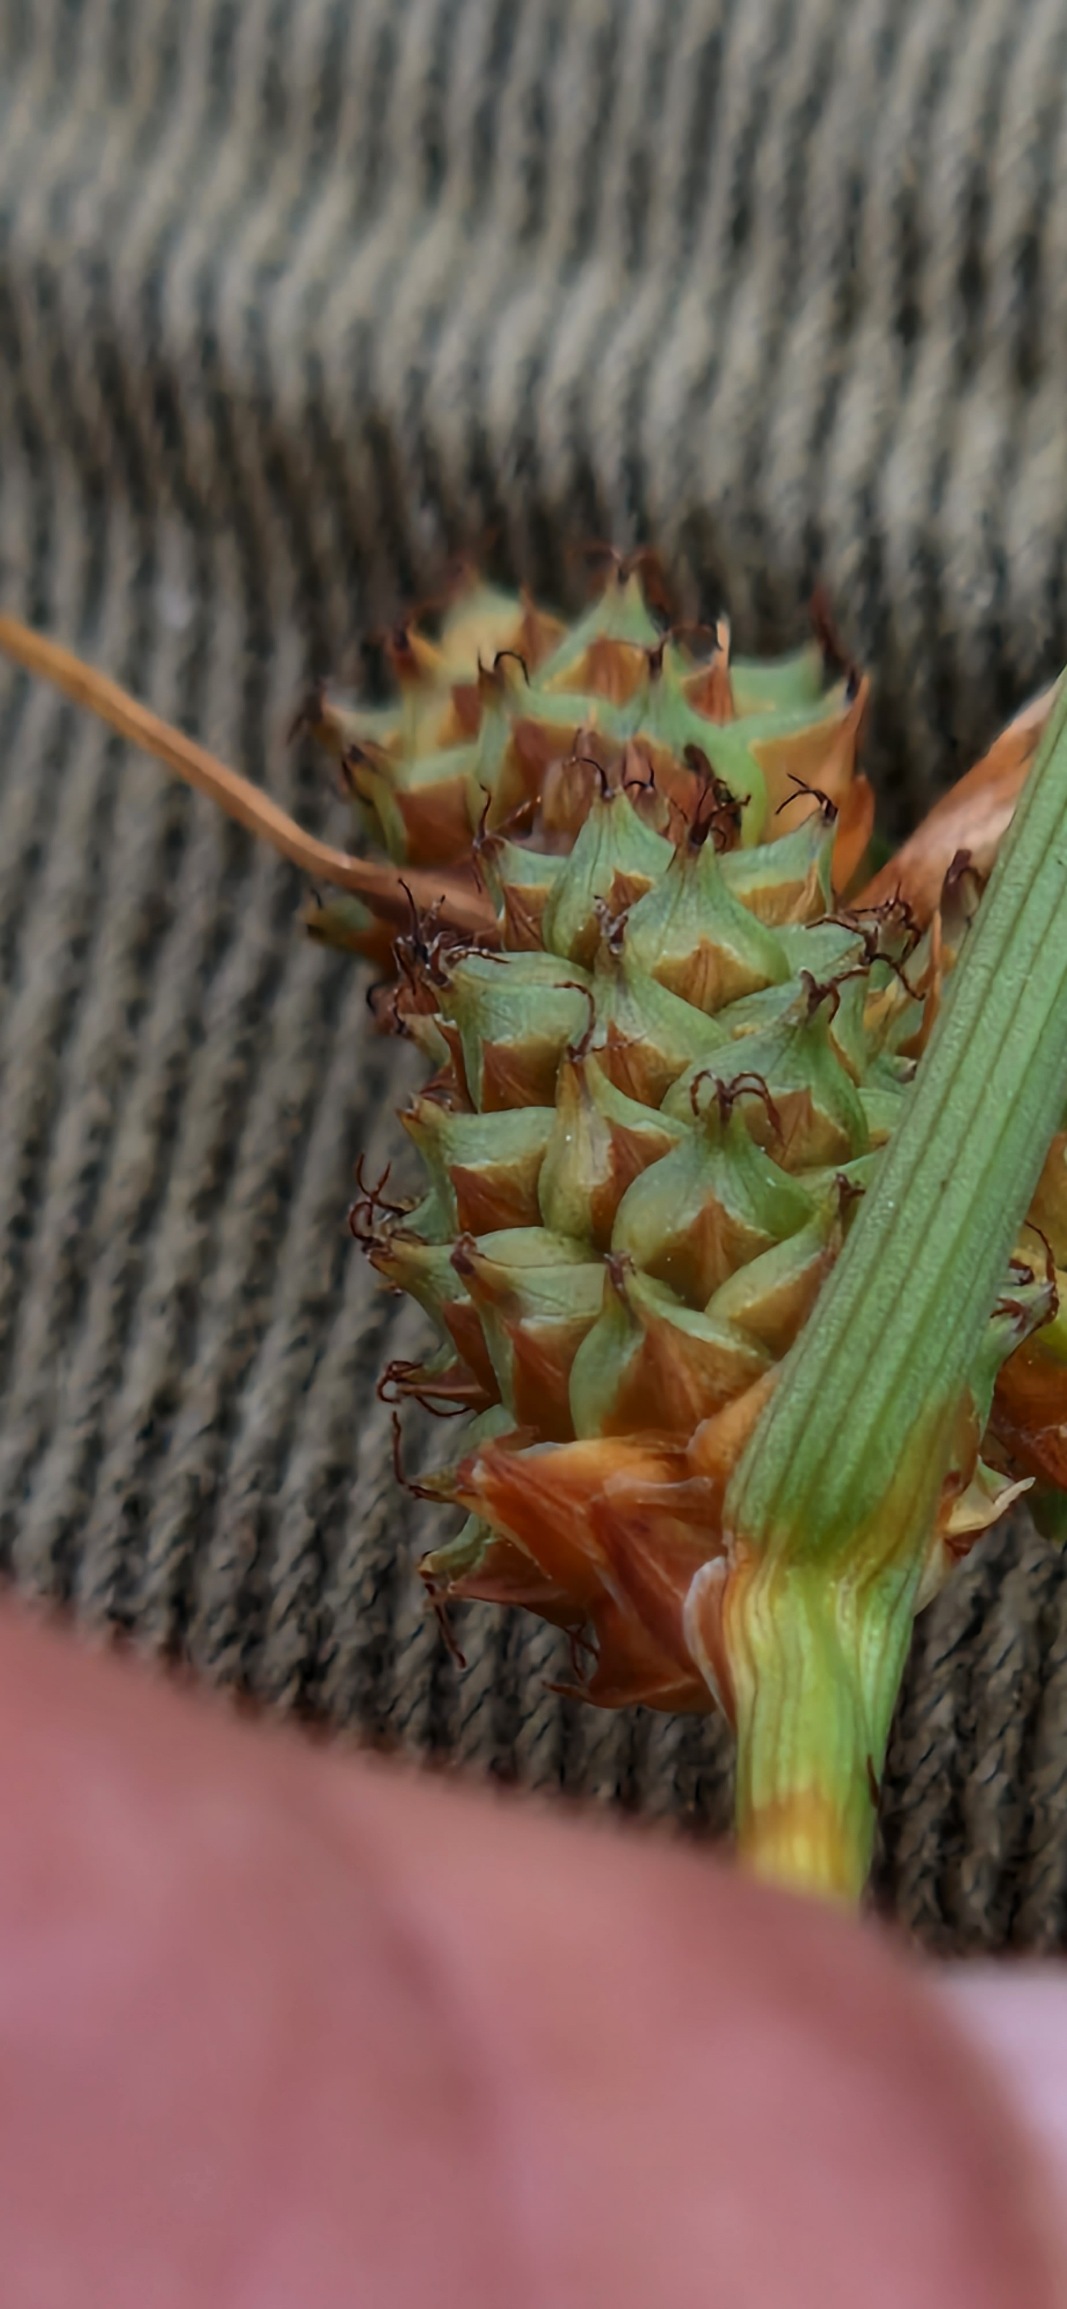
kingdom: Plantae
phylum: Tracheophyta
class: Liliopsida
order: Poales
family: Cyperaceae
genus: Carex
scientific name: Carex extensa
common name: Udspilet star
